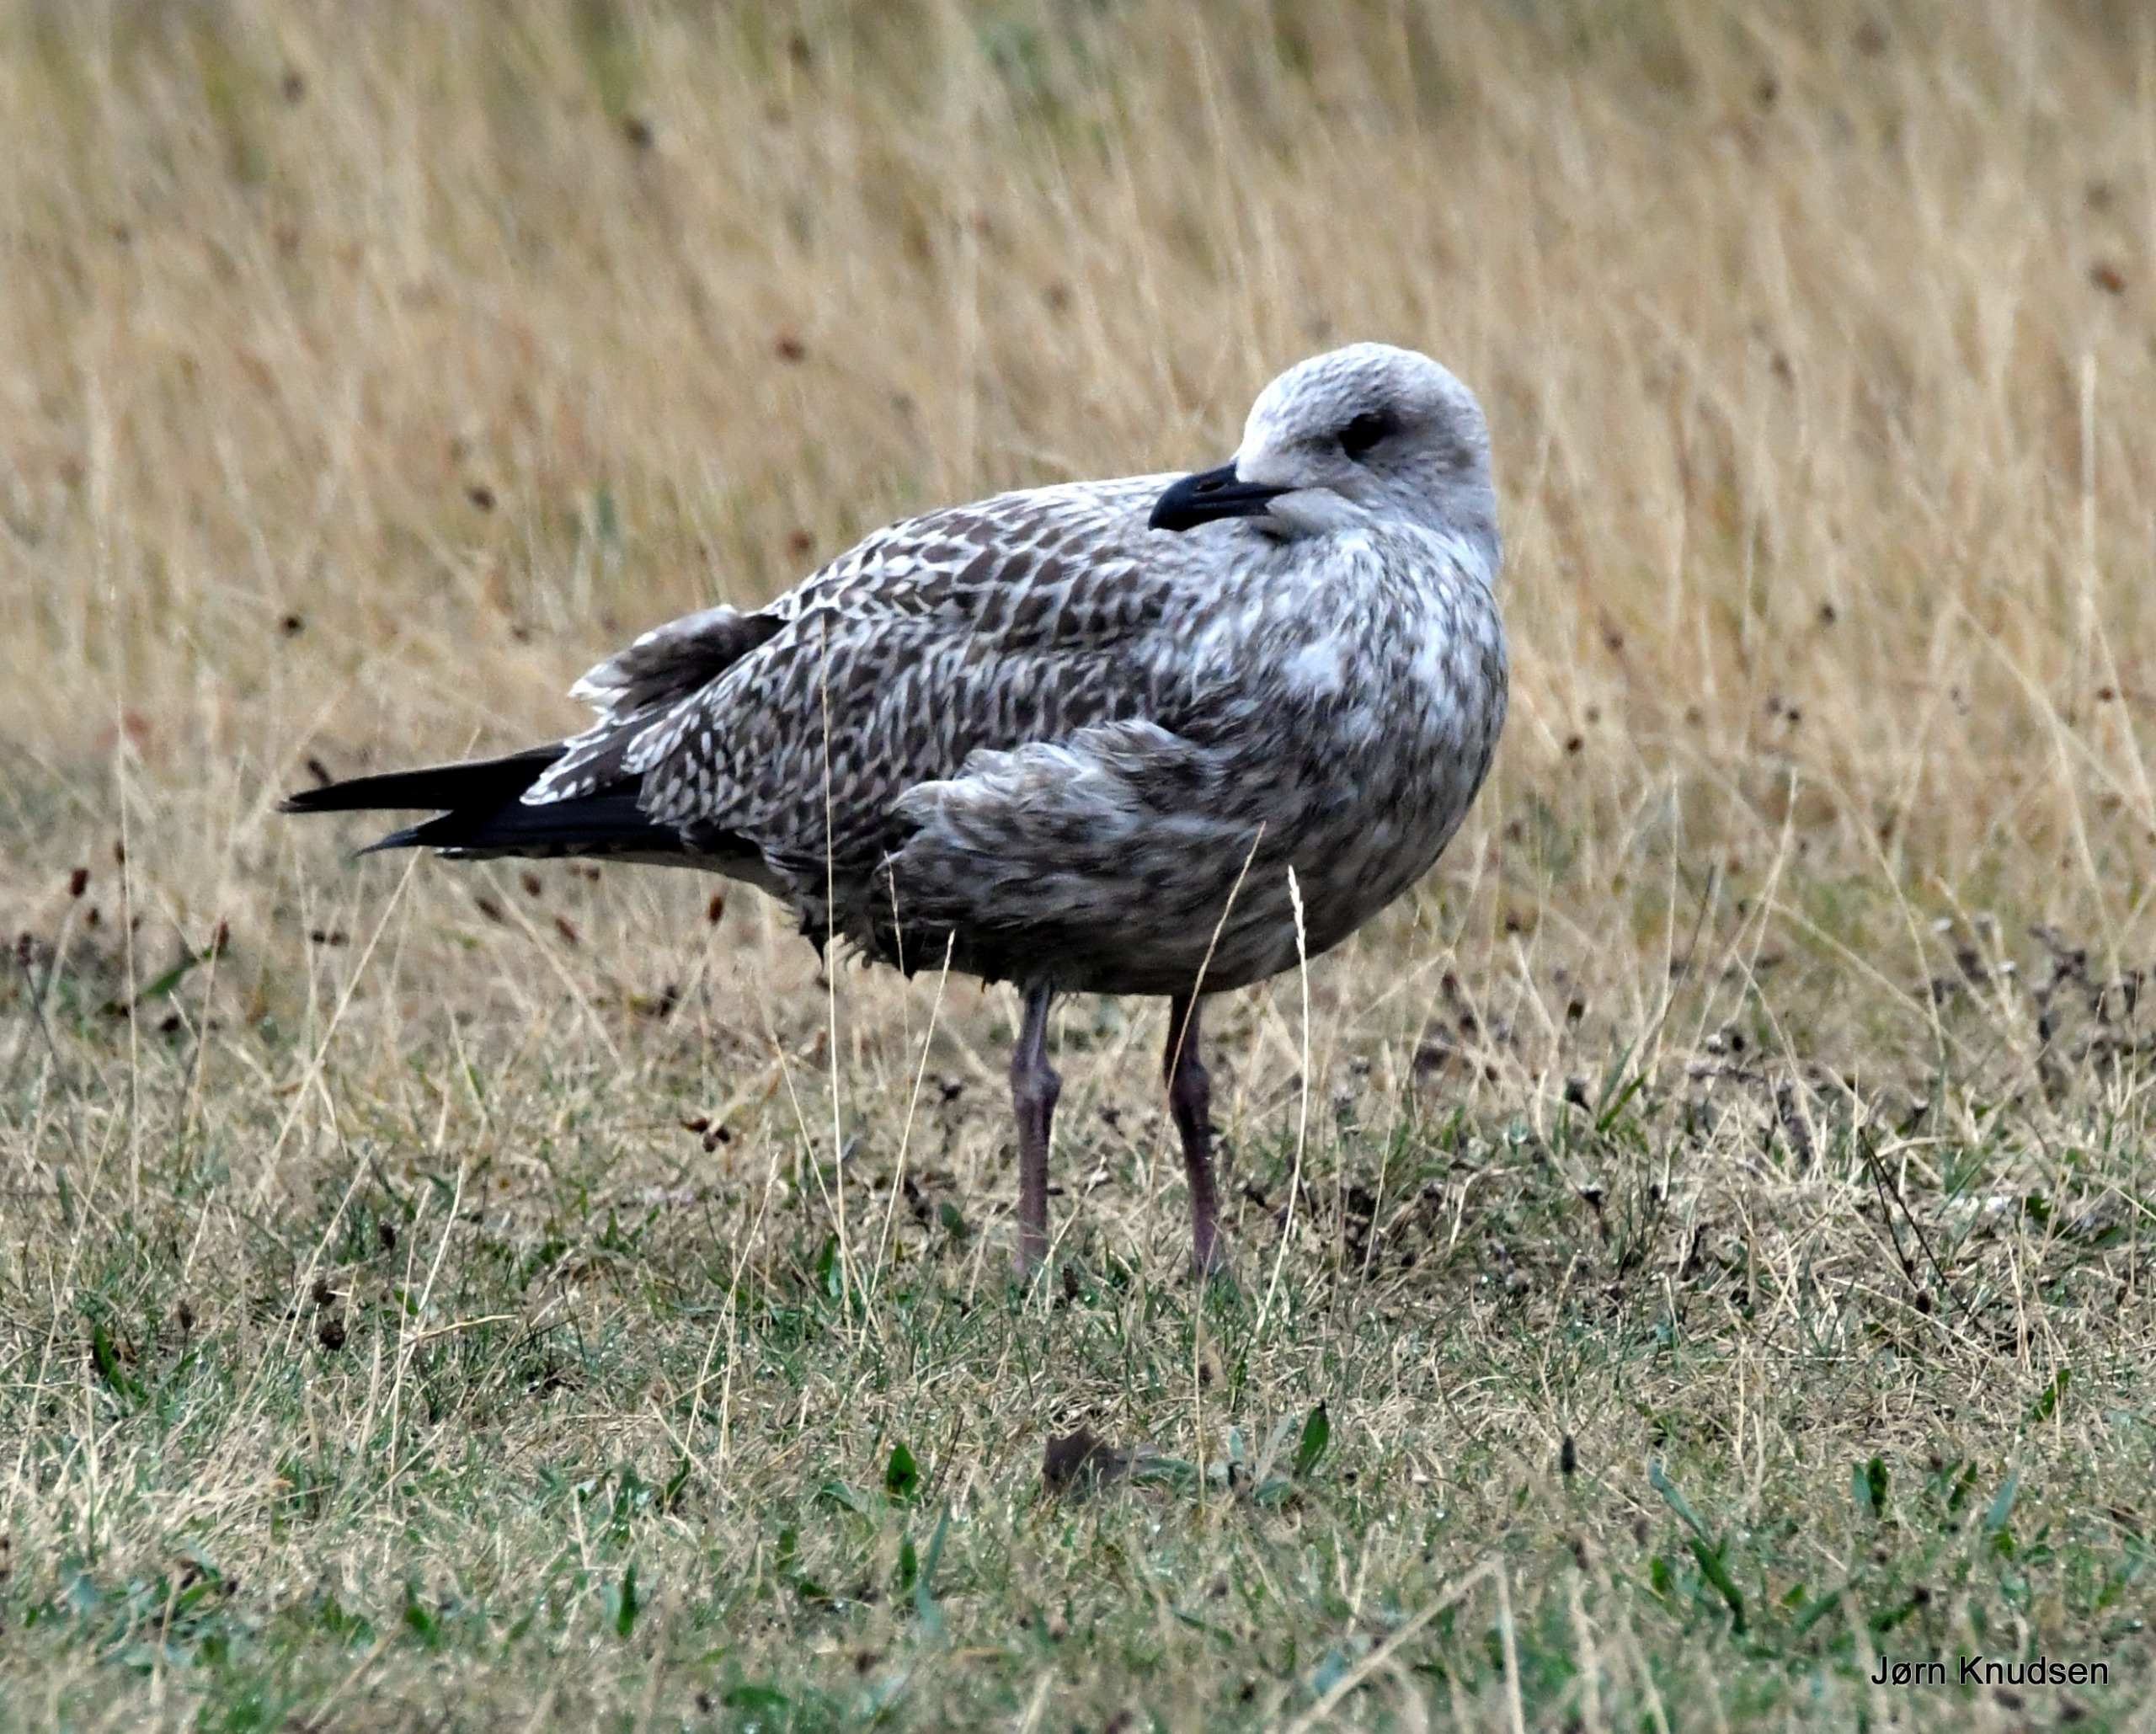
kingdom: Animalia
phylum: Chordata
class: Aves
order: Charadriiformes
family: Laridae
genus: Larus
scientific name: Larus argentatus
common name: Sølvmåge
